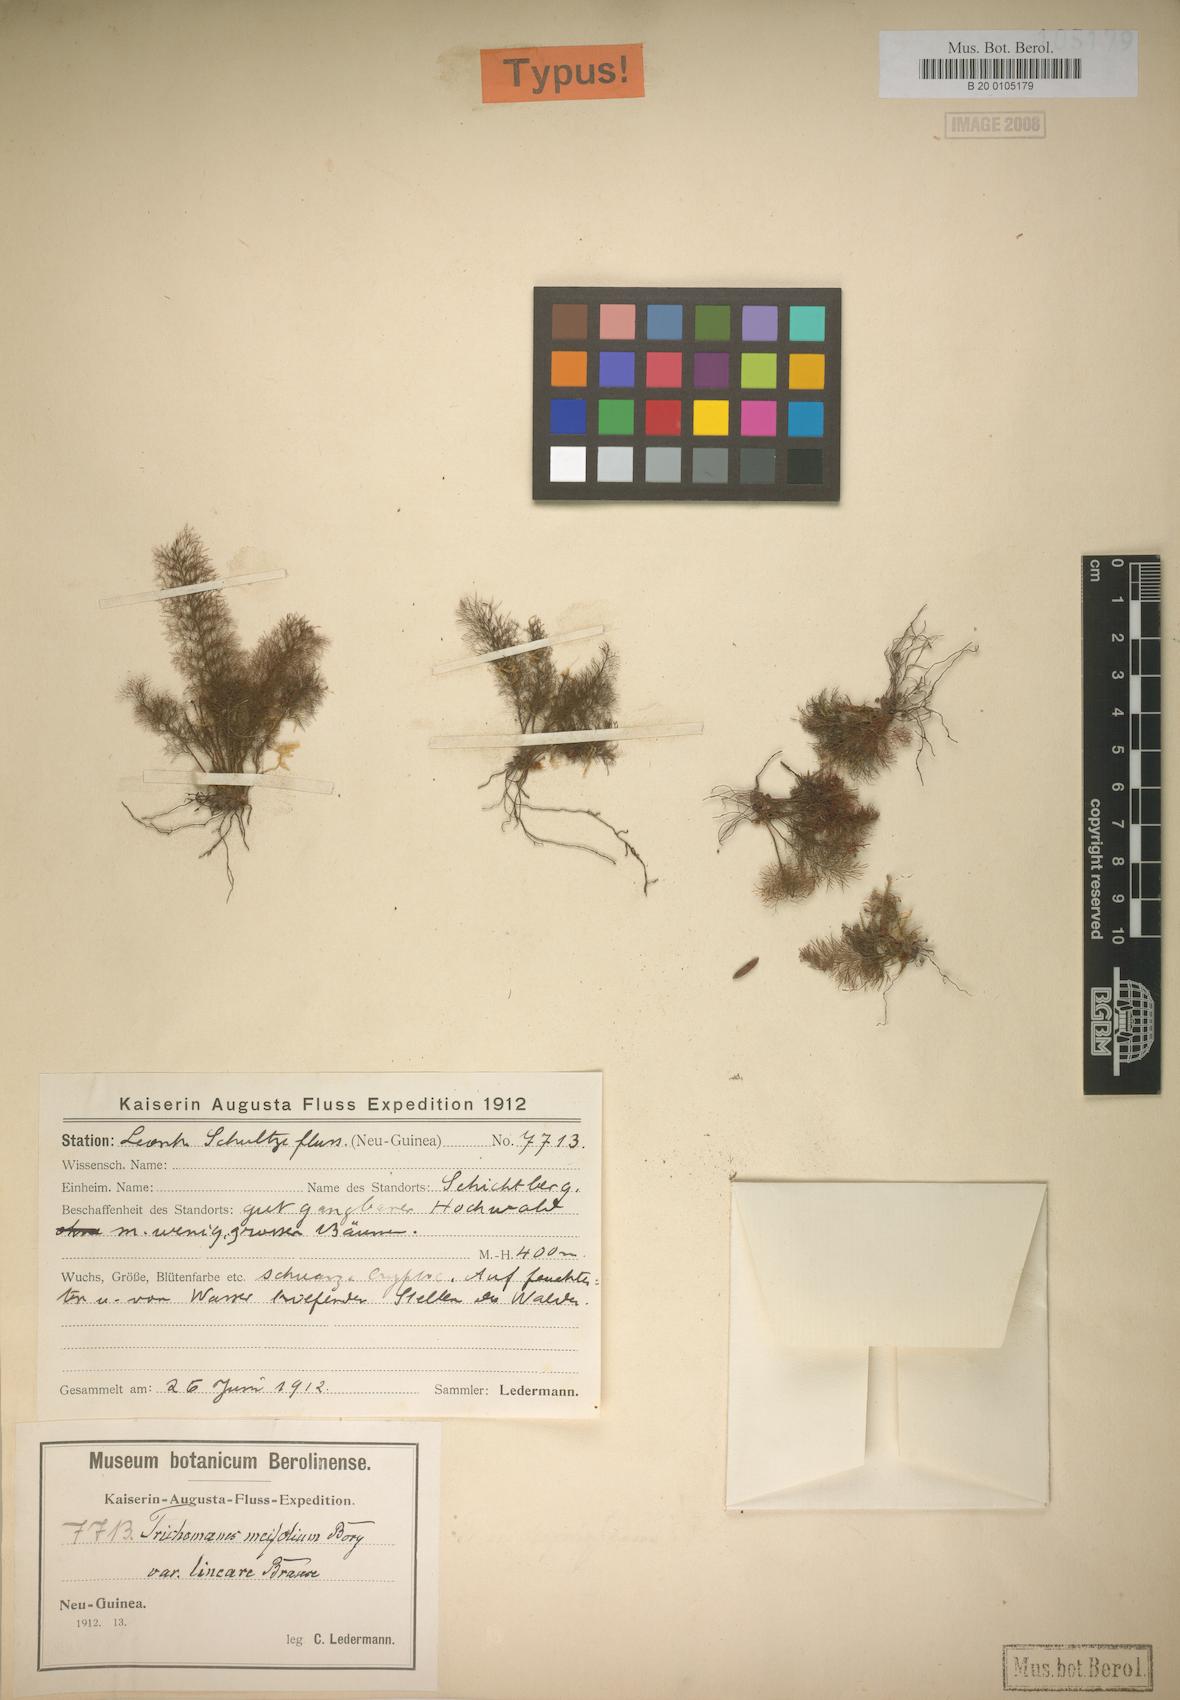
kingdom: Plantae
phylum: Tracheophyta
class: Polypodiopsida
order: Hymenophyllales
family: Hymenophyllaceae
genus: Abrodictyum
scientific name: Abrodictyum pluma
